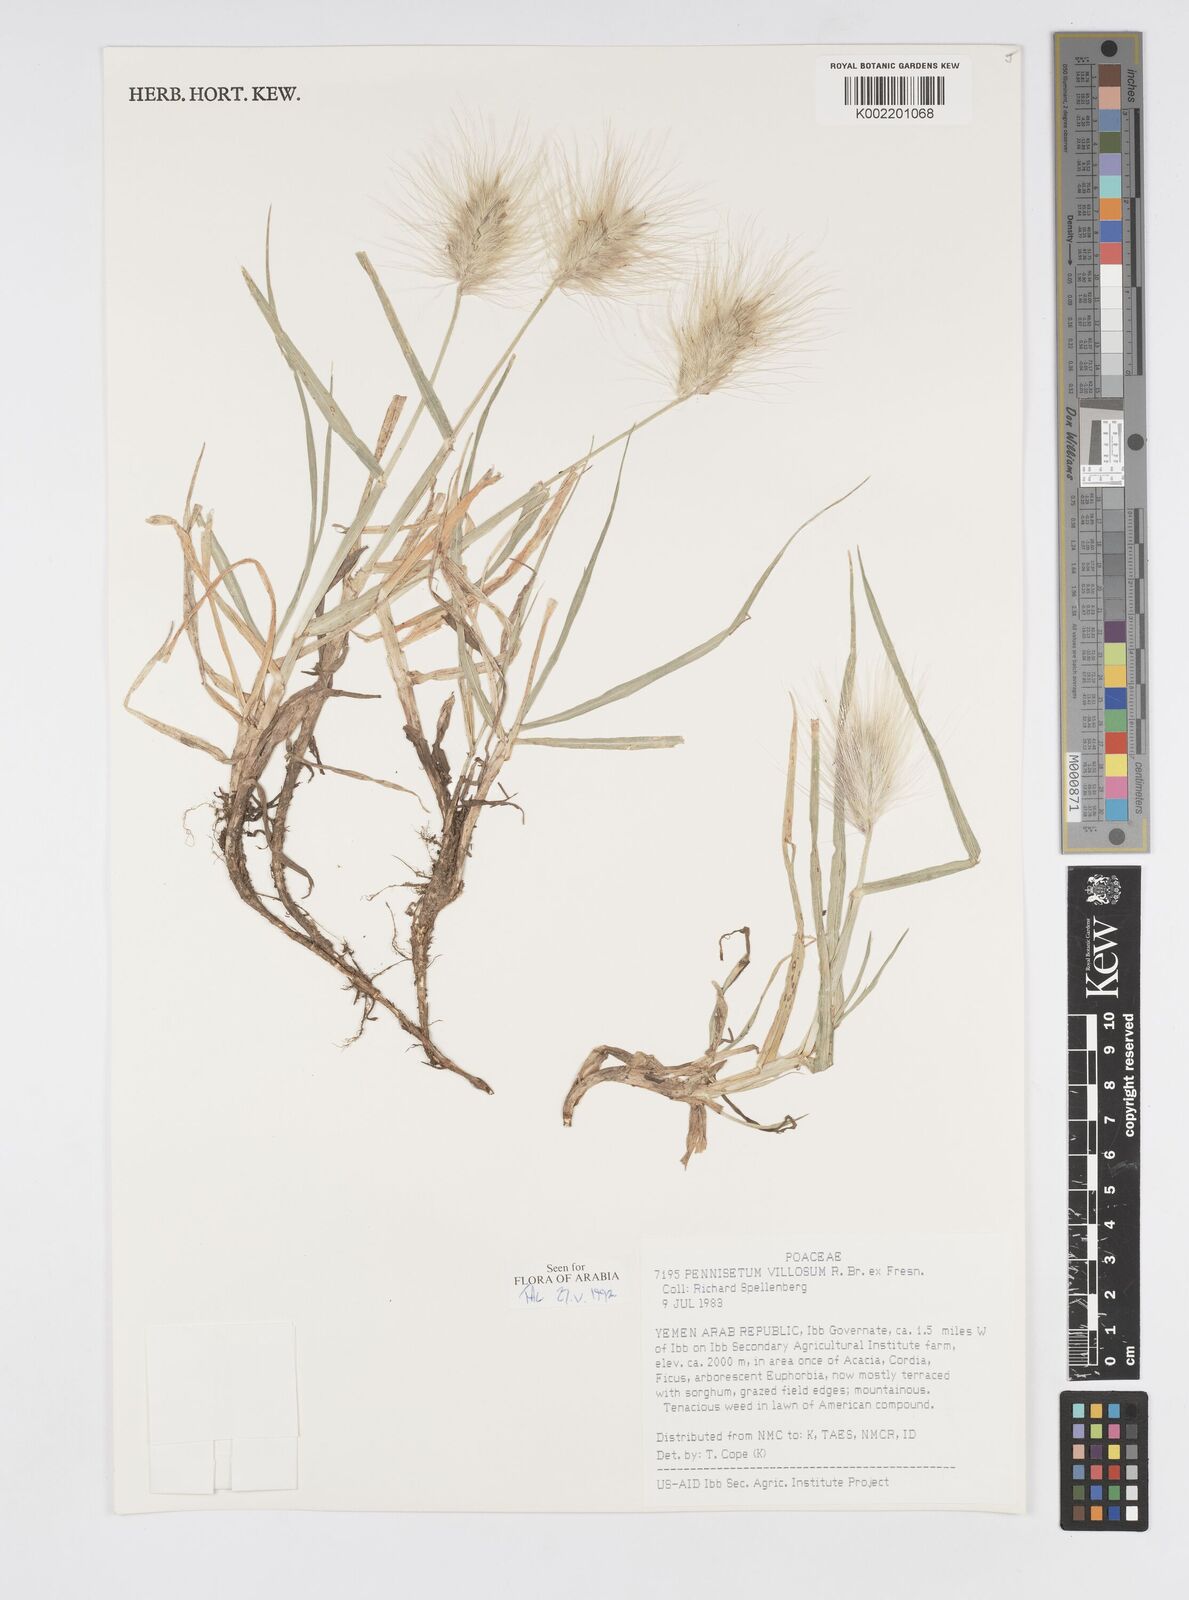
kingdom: Plantae
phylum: Tracheophyta
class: Liliopsida
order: Poales
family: Poaceae
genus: Cenchrus
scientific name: Cenchrus longisetus
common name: Feathertop
